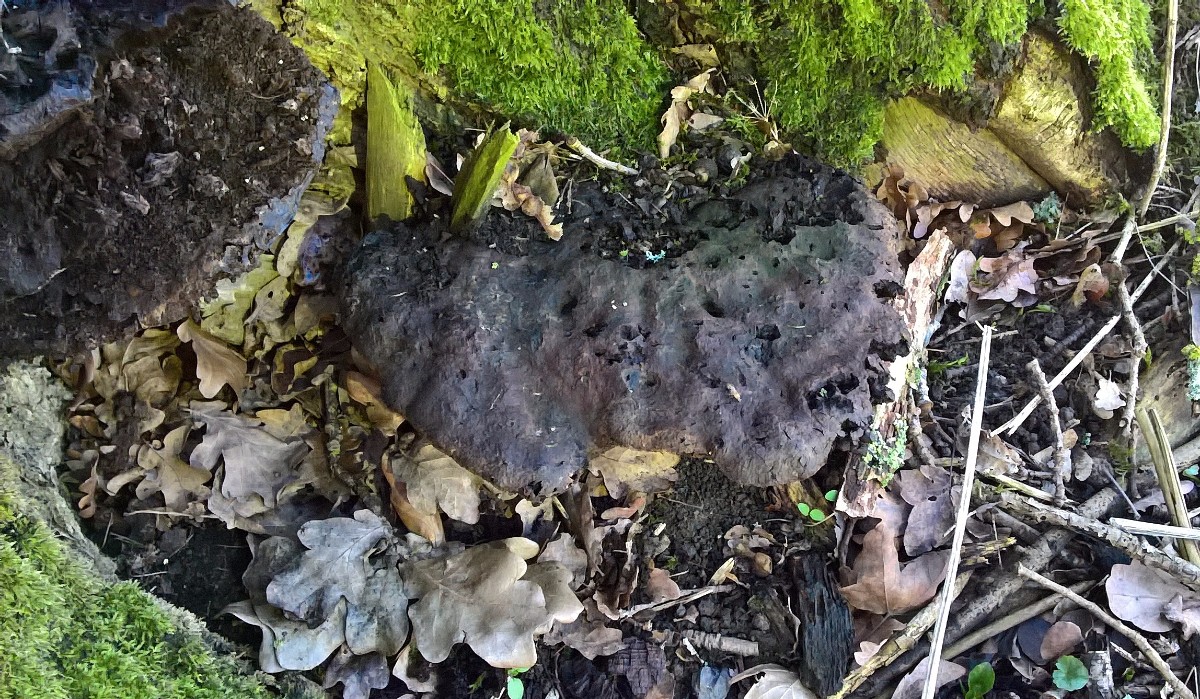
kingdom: Fungi
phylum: Basidiomycota
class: Agaricomycetes
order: Hymenochaetales
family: Hymenochaetaceae
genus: Pseudoinonotus
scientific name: Pseudoinonotus dryadeus
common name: ege-spejlporesvamp
